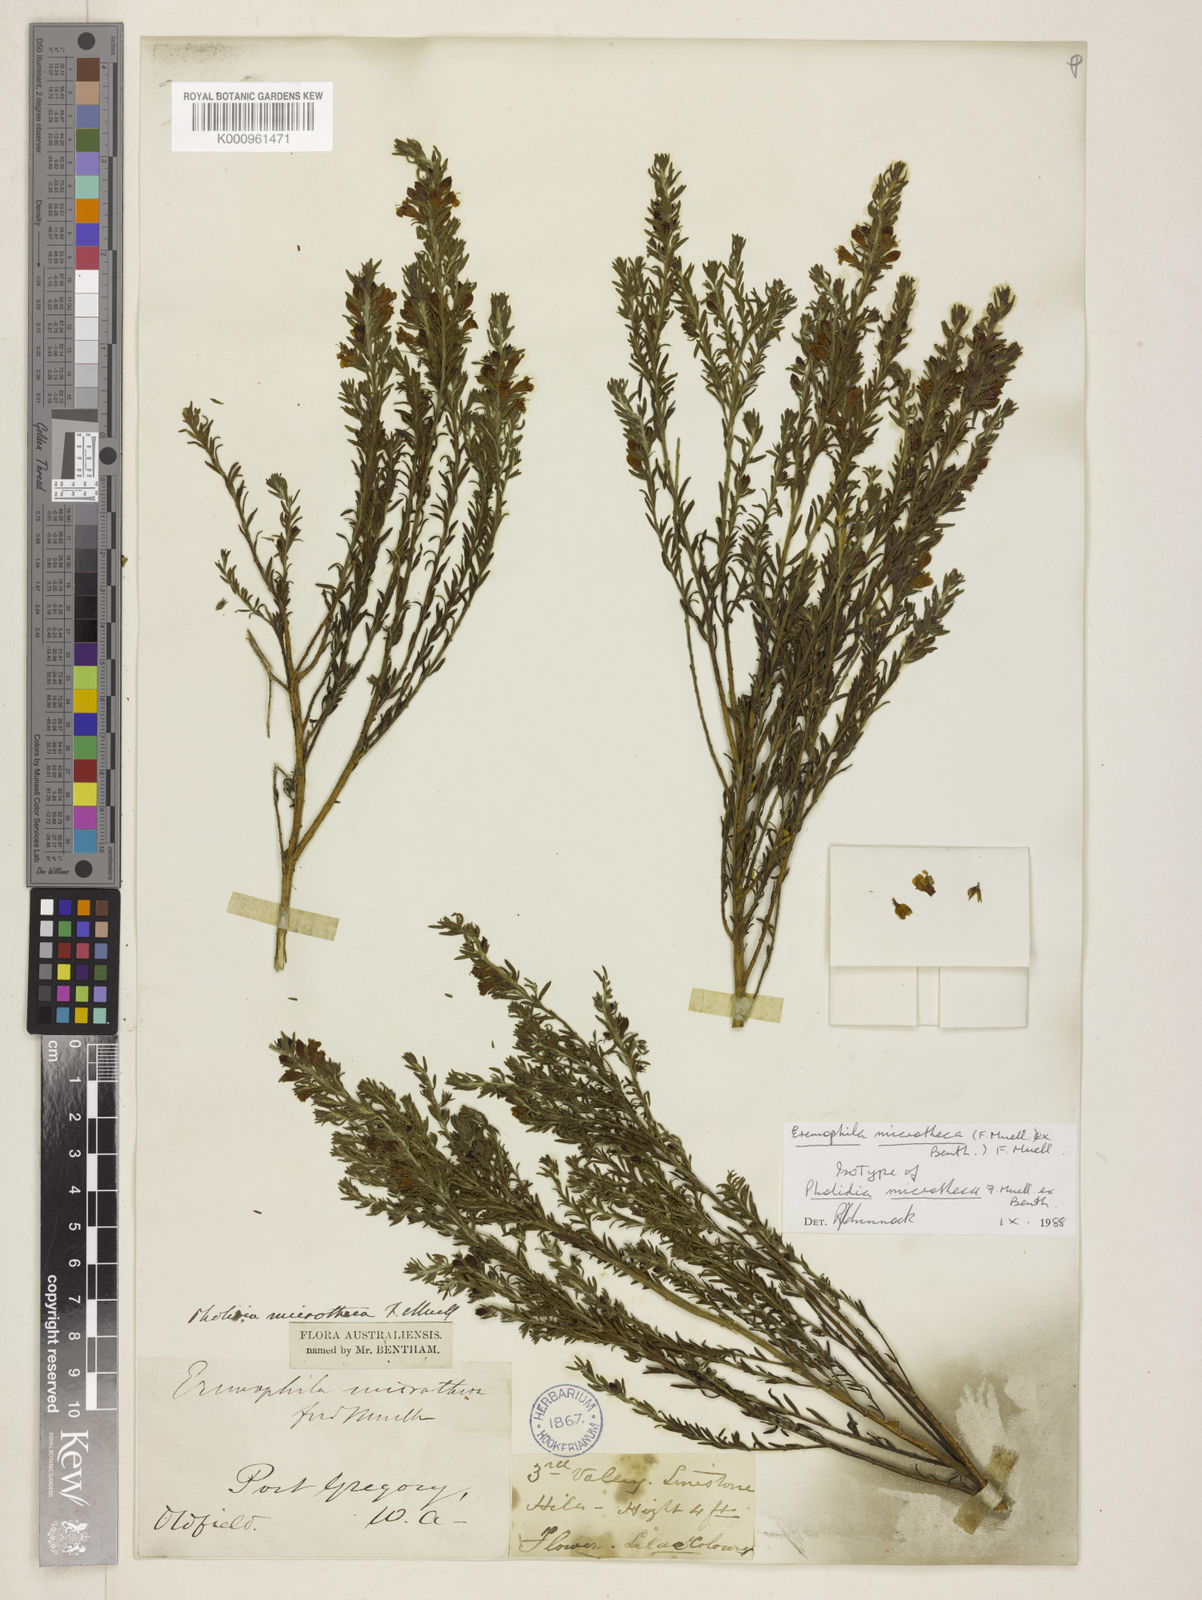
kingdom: Plantae
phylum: Tracheophyta
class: Magnoliopsida
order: Lamiales
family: Scrophulariaceae
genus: Eremophila
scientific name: Eremophila microtheca
